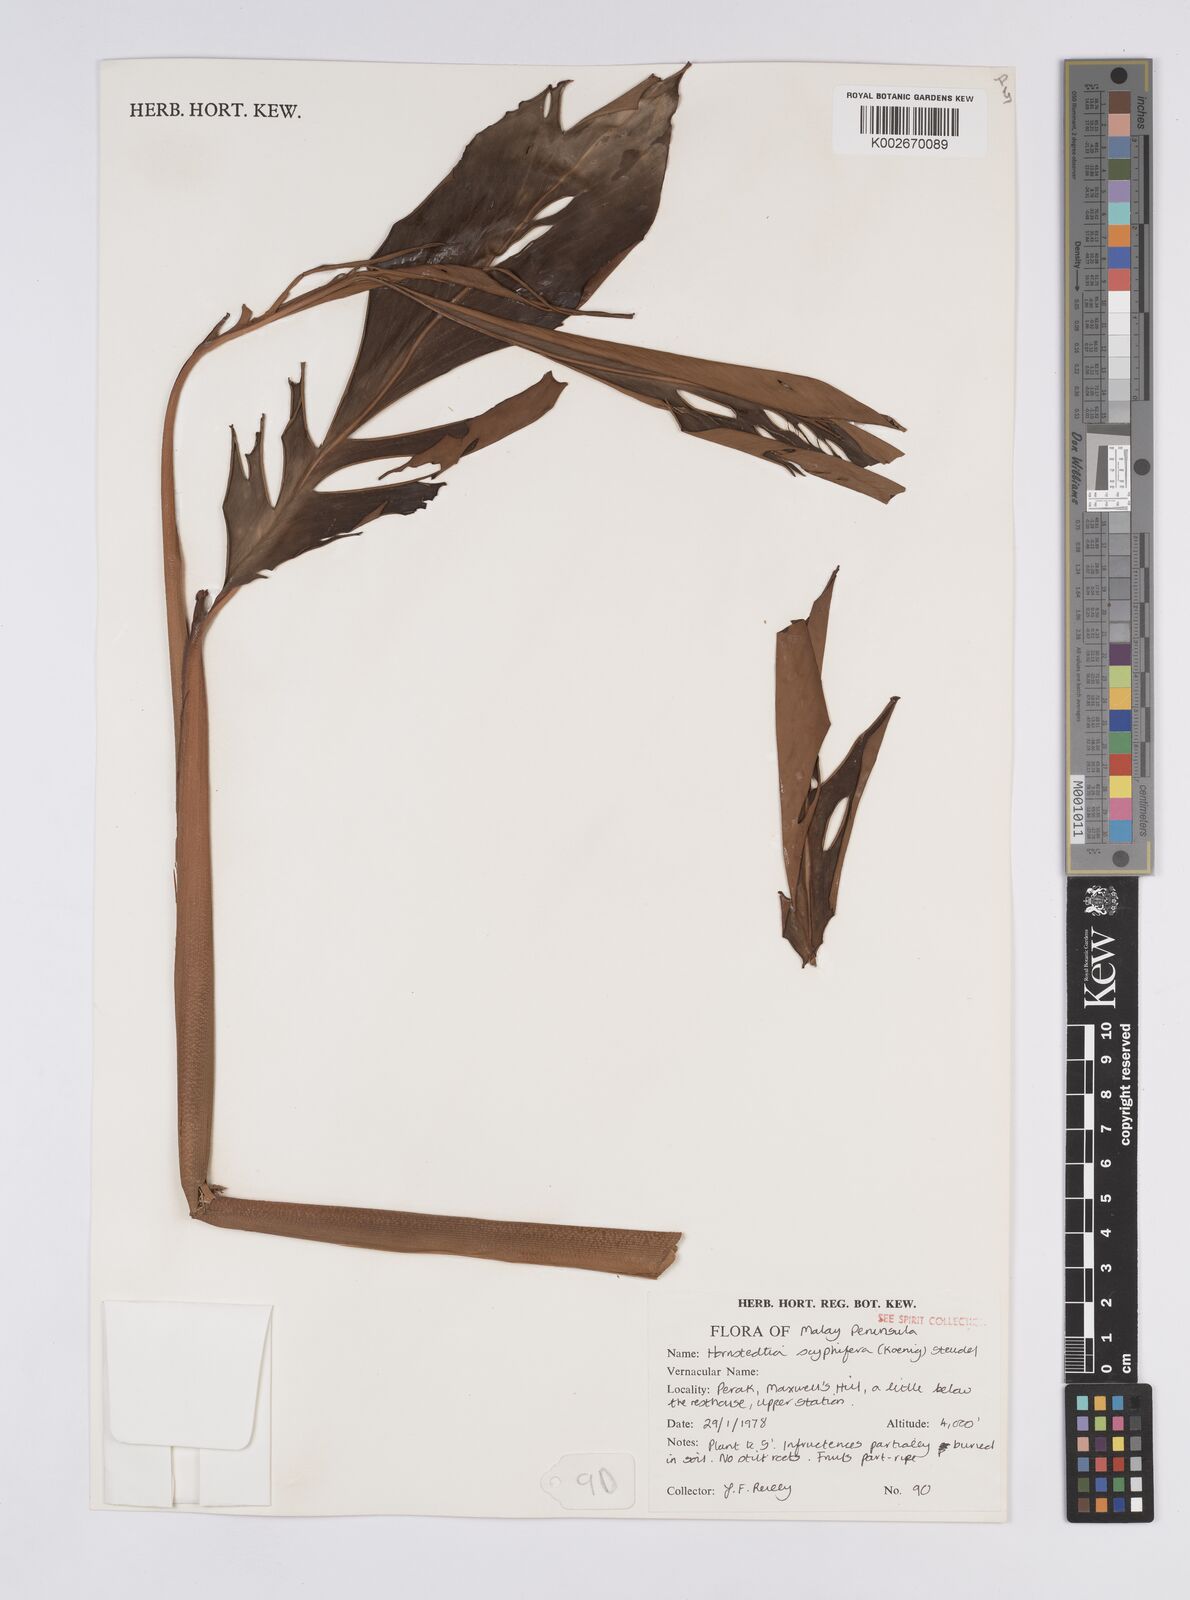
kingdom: Plantae
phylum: Tracheophyta
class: Liliopsida
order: Zingiberales
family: Zingiberaceae
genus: Hornstedtia
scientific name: Hornstedtia scyphifera
